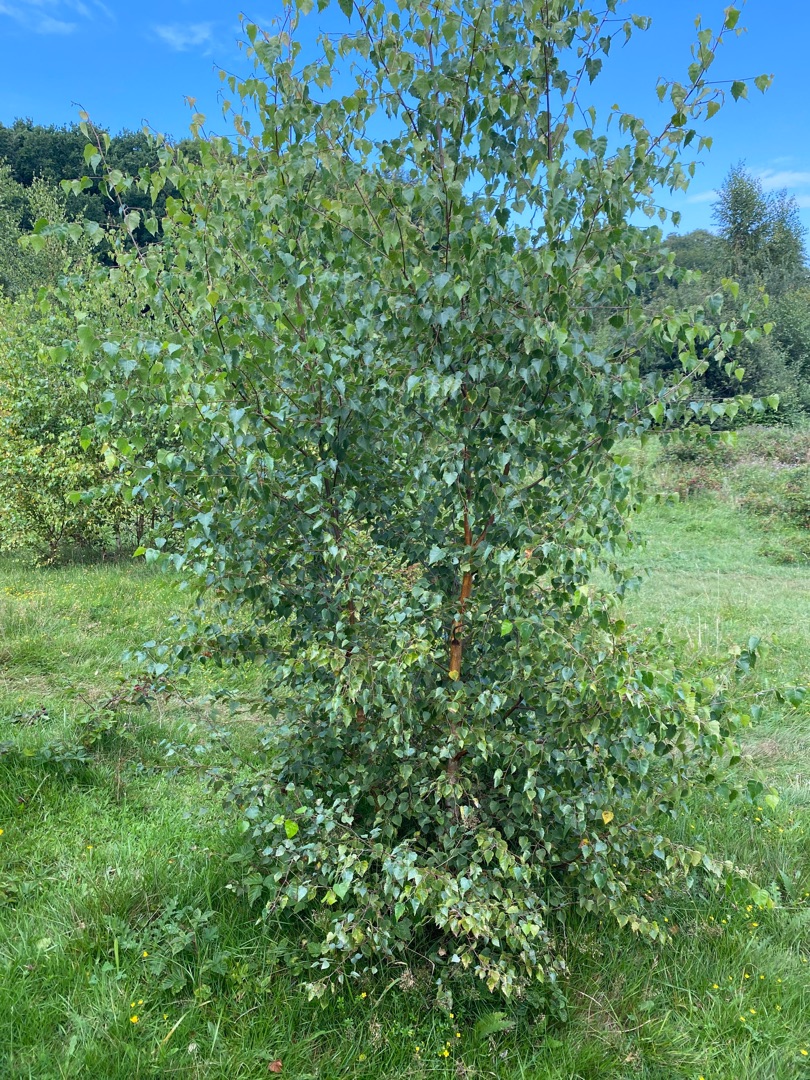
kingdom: Plantae
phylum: Tracheophyta
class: Magnoliopsida
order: Fagales
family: Betulaceae
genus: Betula
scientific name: Betula pendula
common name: Vorte-birk
